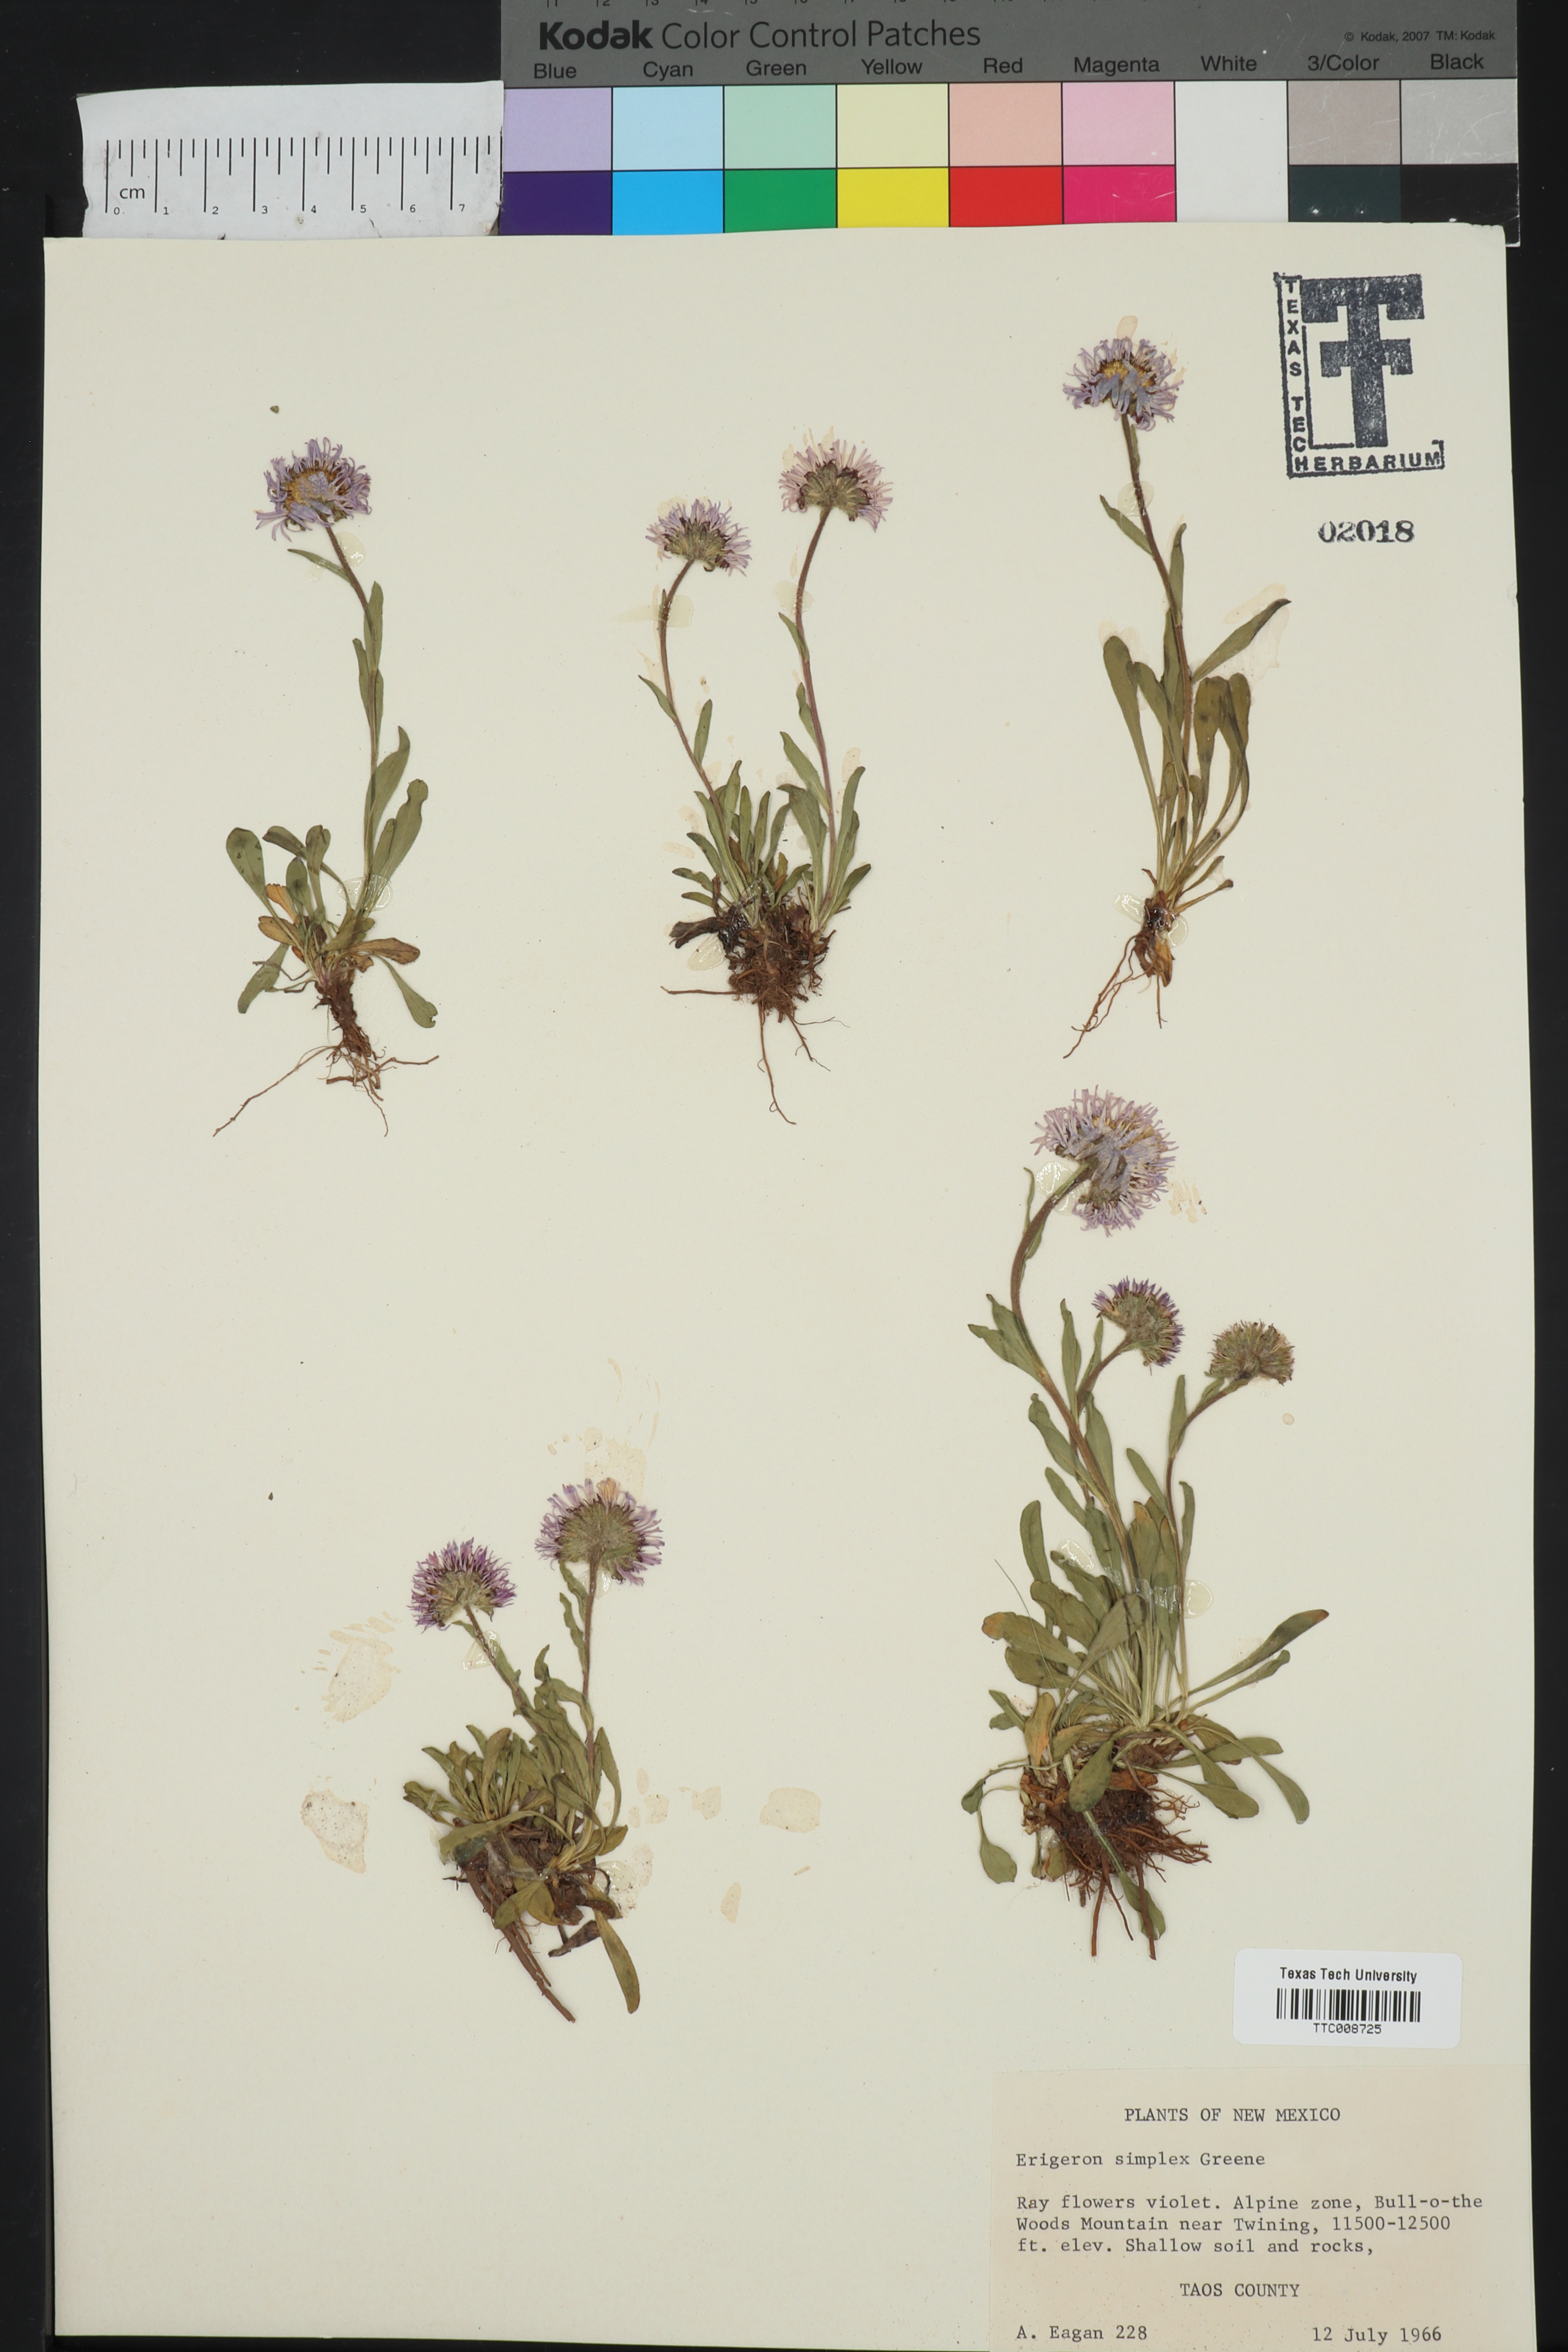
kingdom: Plantae
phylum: Tracheophyta
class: Magnoliopsida
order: Asterales
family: Asteraceae
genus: Erigeron
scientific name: Erigeron grandiflorus
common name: Rocky mountain alpine fleabane
